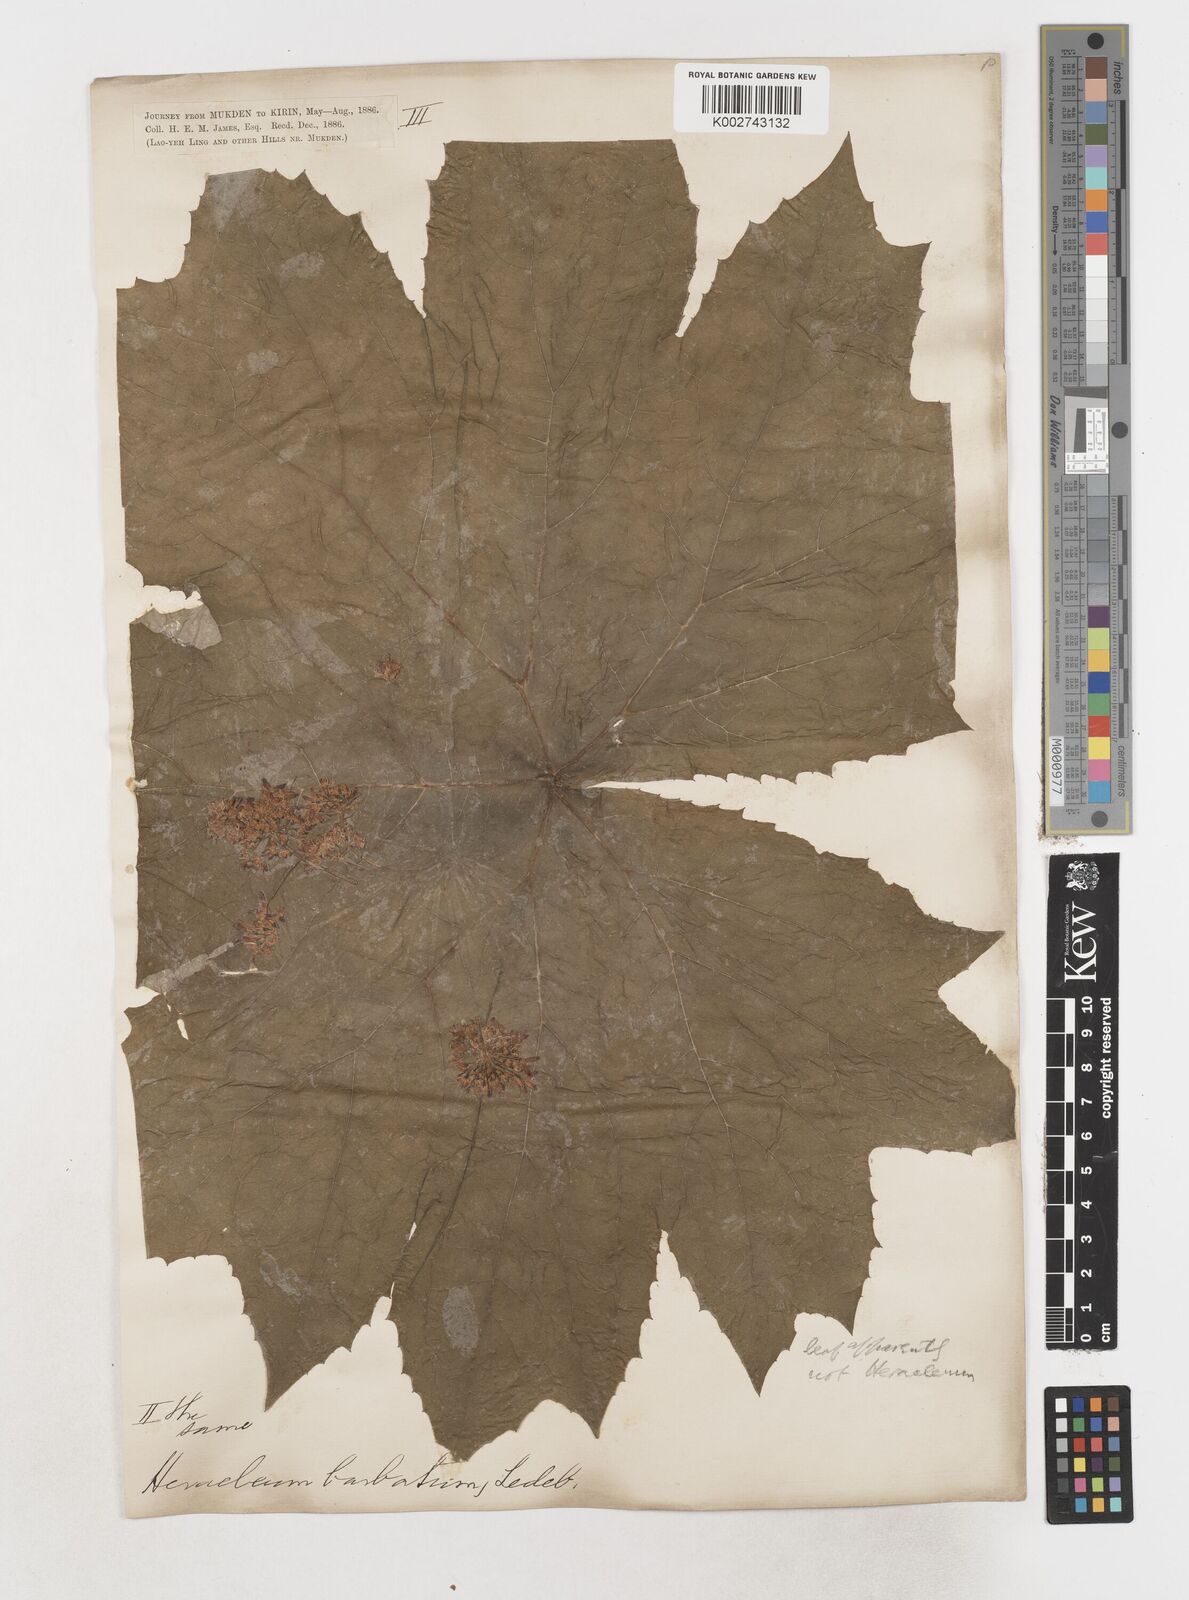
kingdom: Plantae
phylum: Tracheophyta
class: Magnoliopsida
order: Apiales
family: Apiaceae
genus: Heracleum
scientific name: Heracleum dissectum
